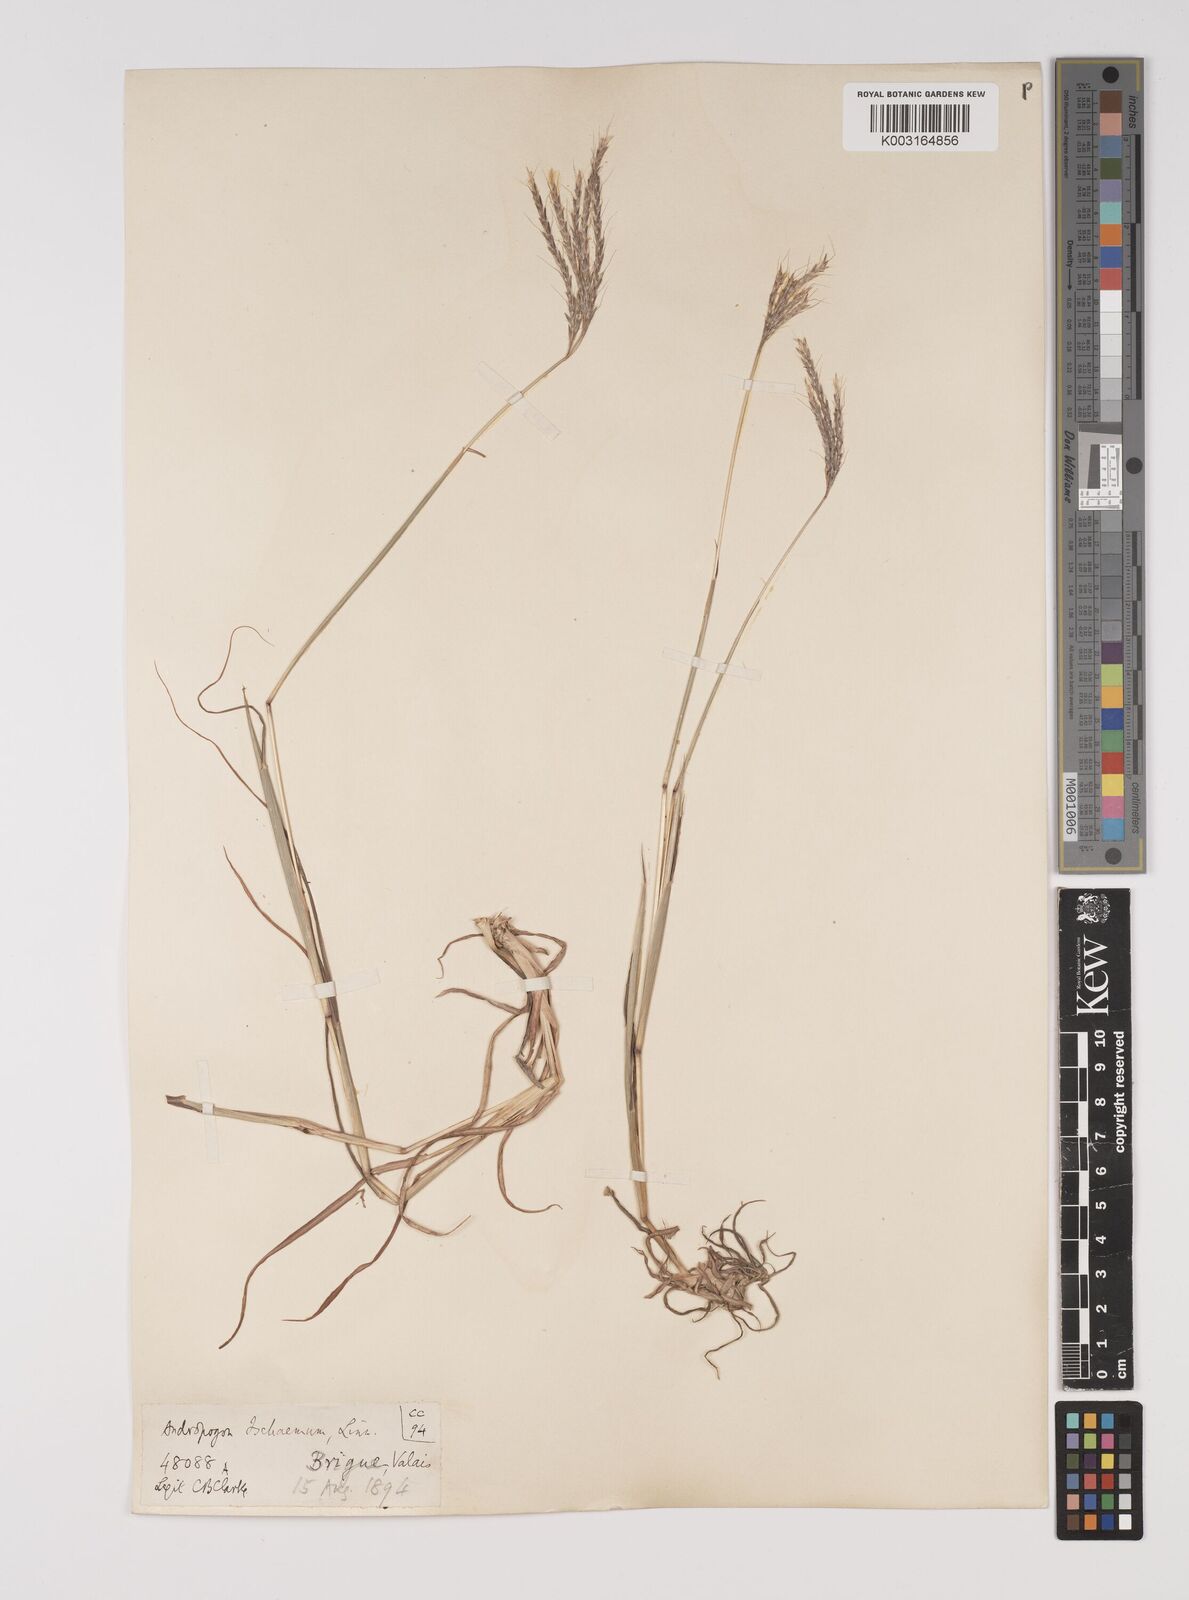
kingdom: Plantae
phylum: Tracheophyta
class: Liliopsida
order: Poales
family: Poaceae
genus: Bothriochloa
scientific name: Bothriochloa ischaemum
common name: Yellow bluestem
